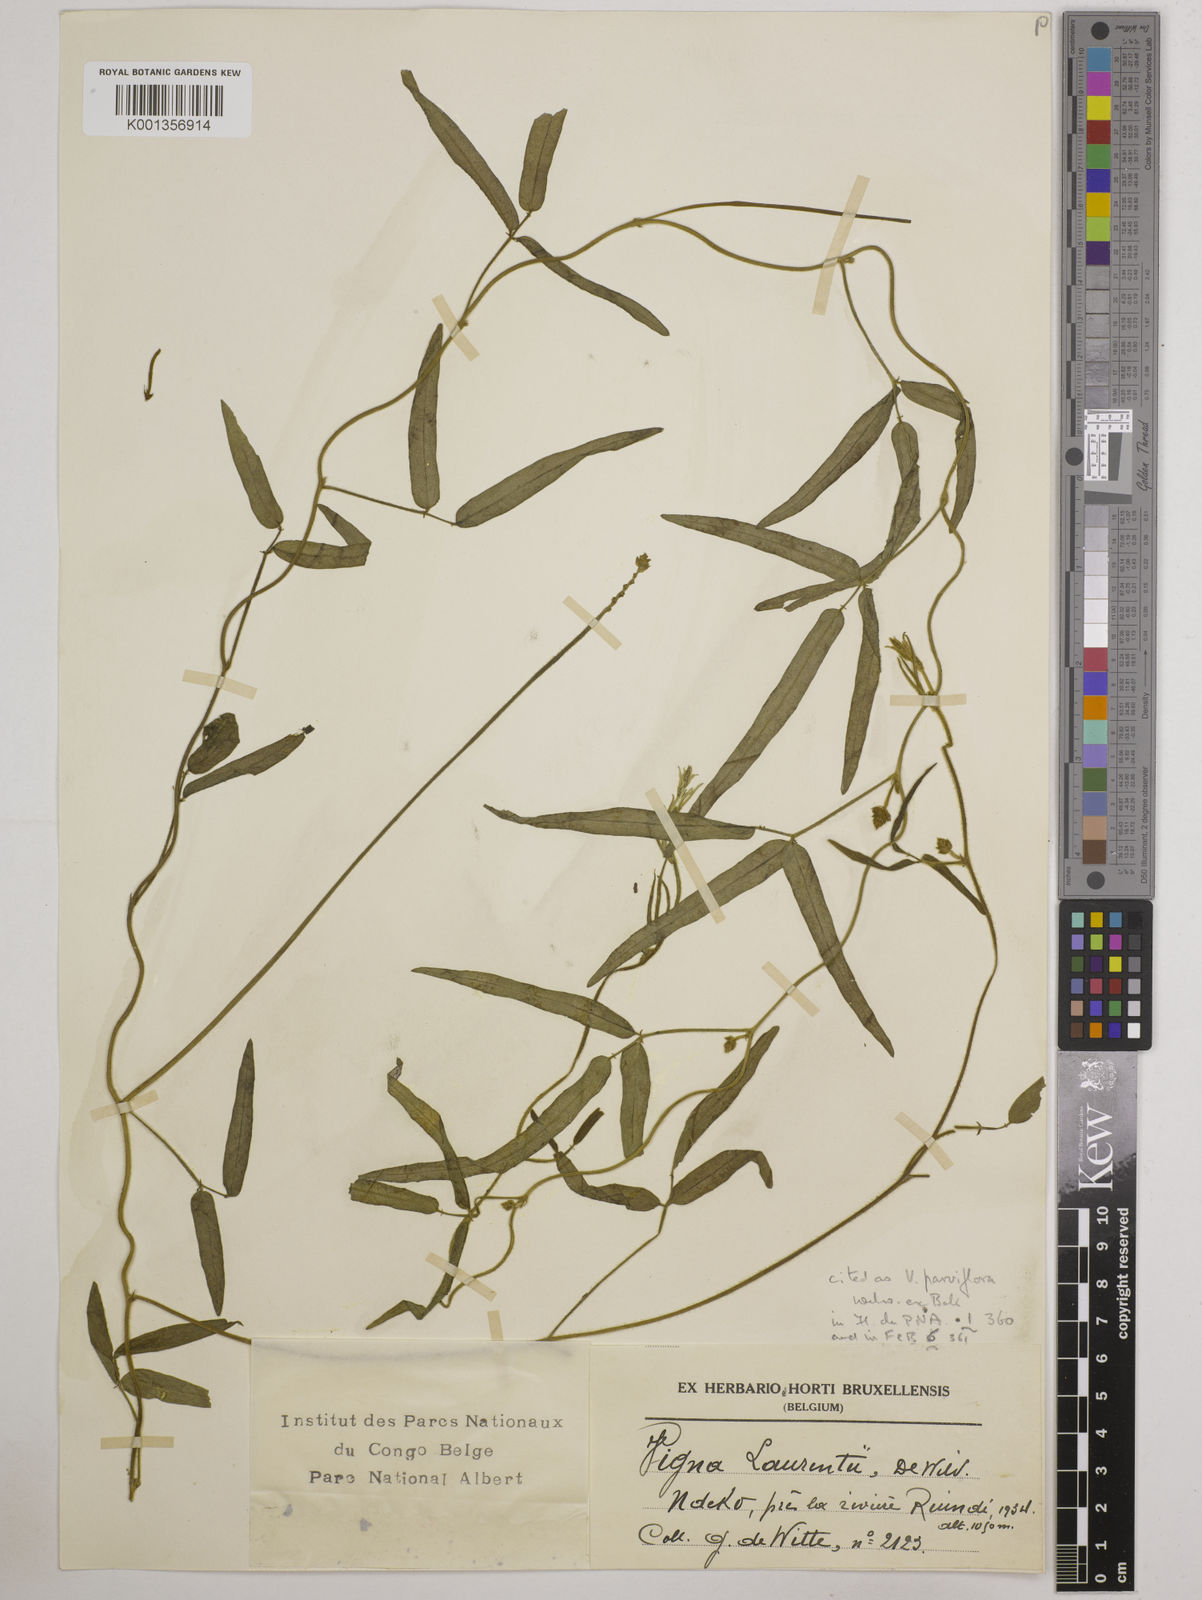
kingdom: Plantae
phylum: Tracheophyta
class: Magnoliopsida
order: Fabales
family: Fabaceae
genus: Vigna
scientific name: Vigna
